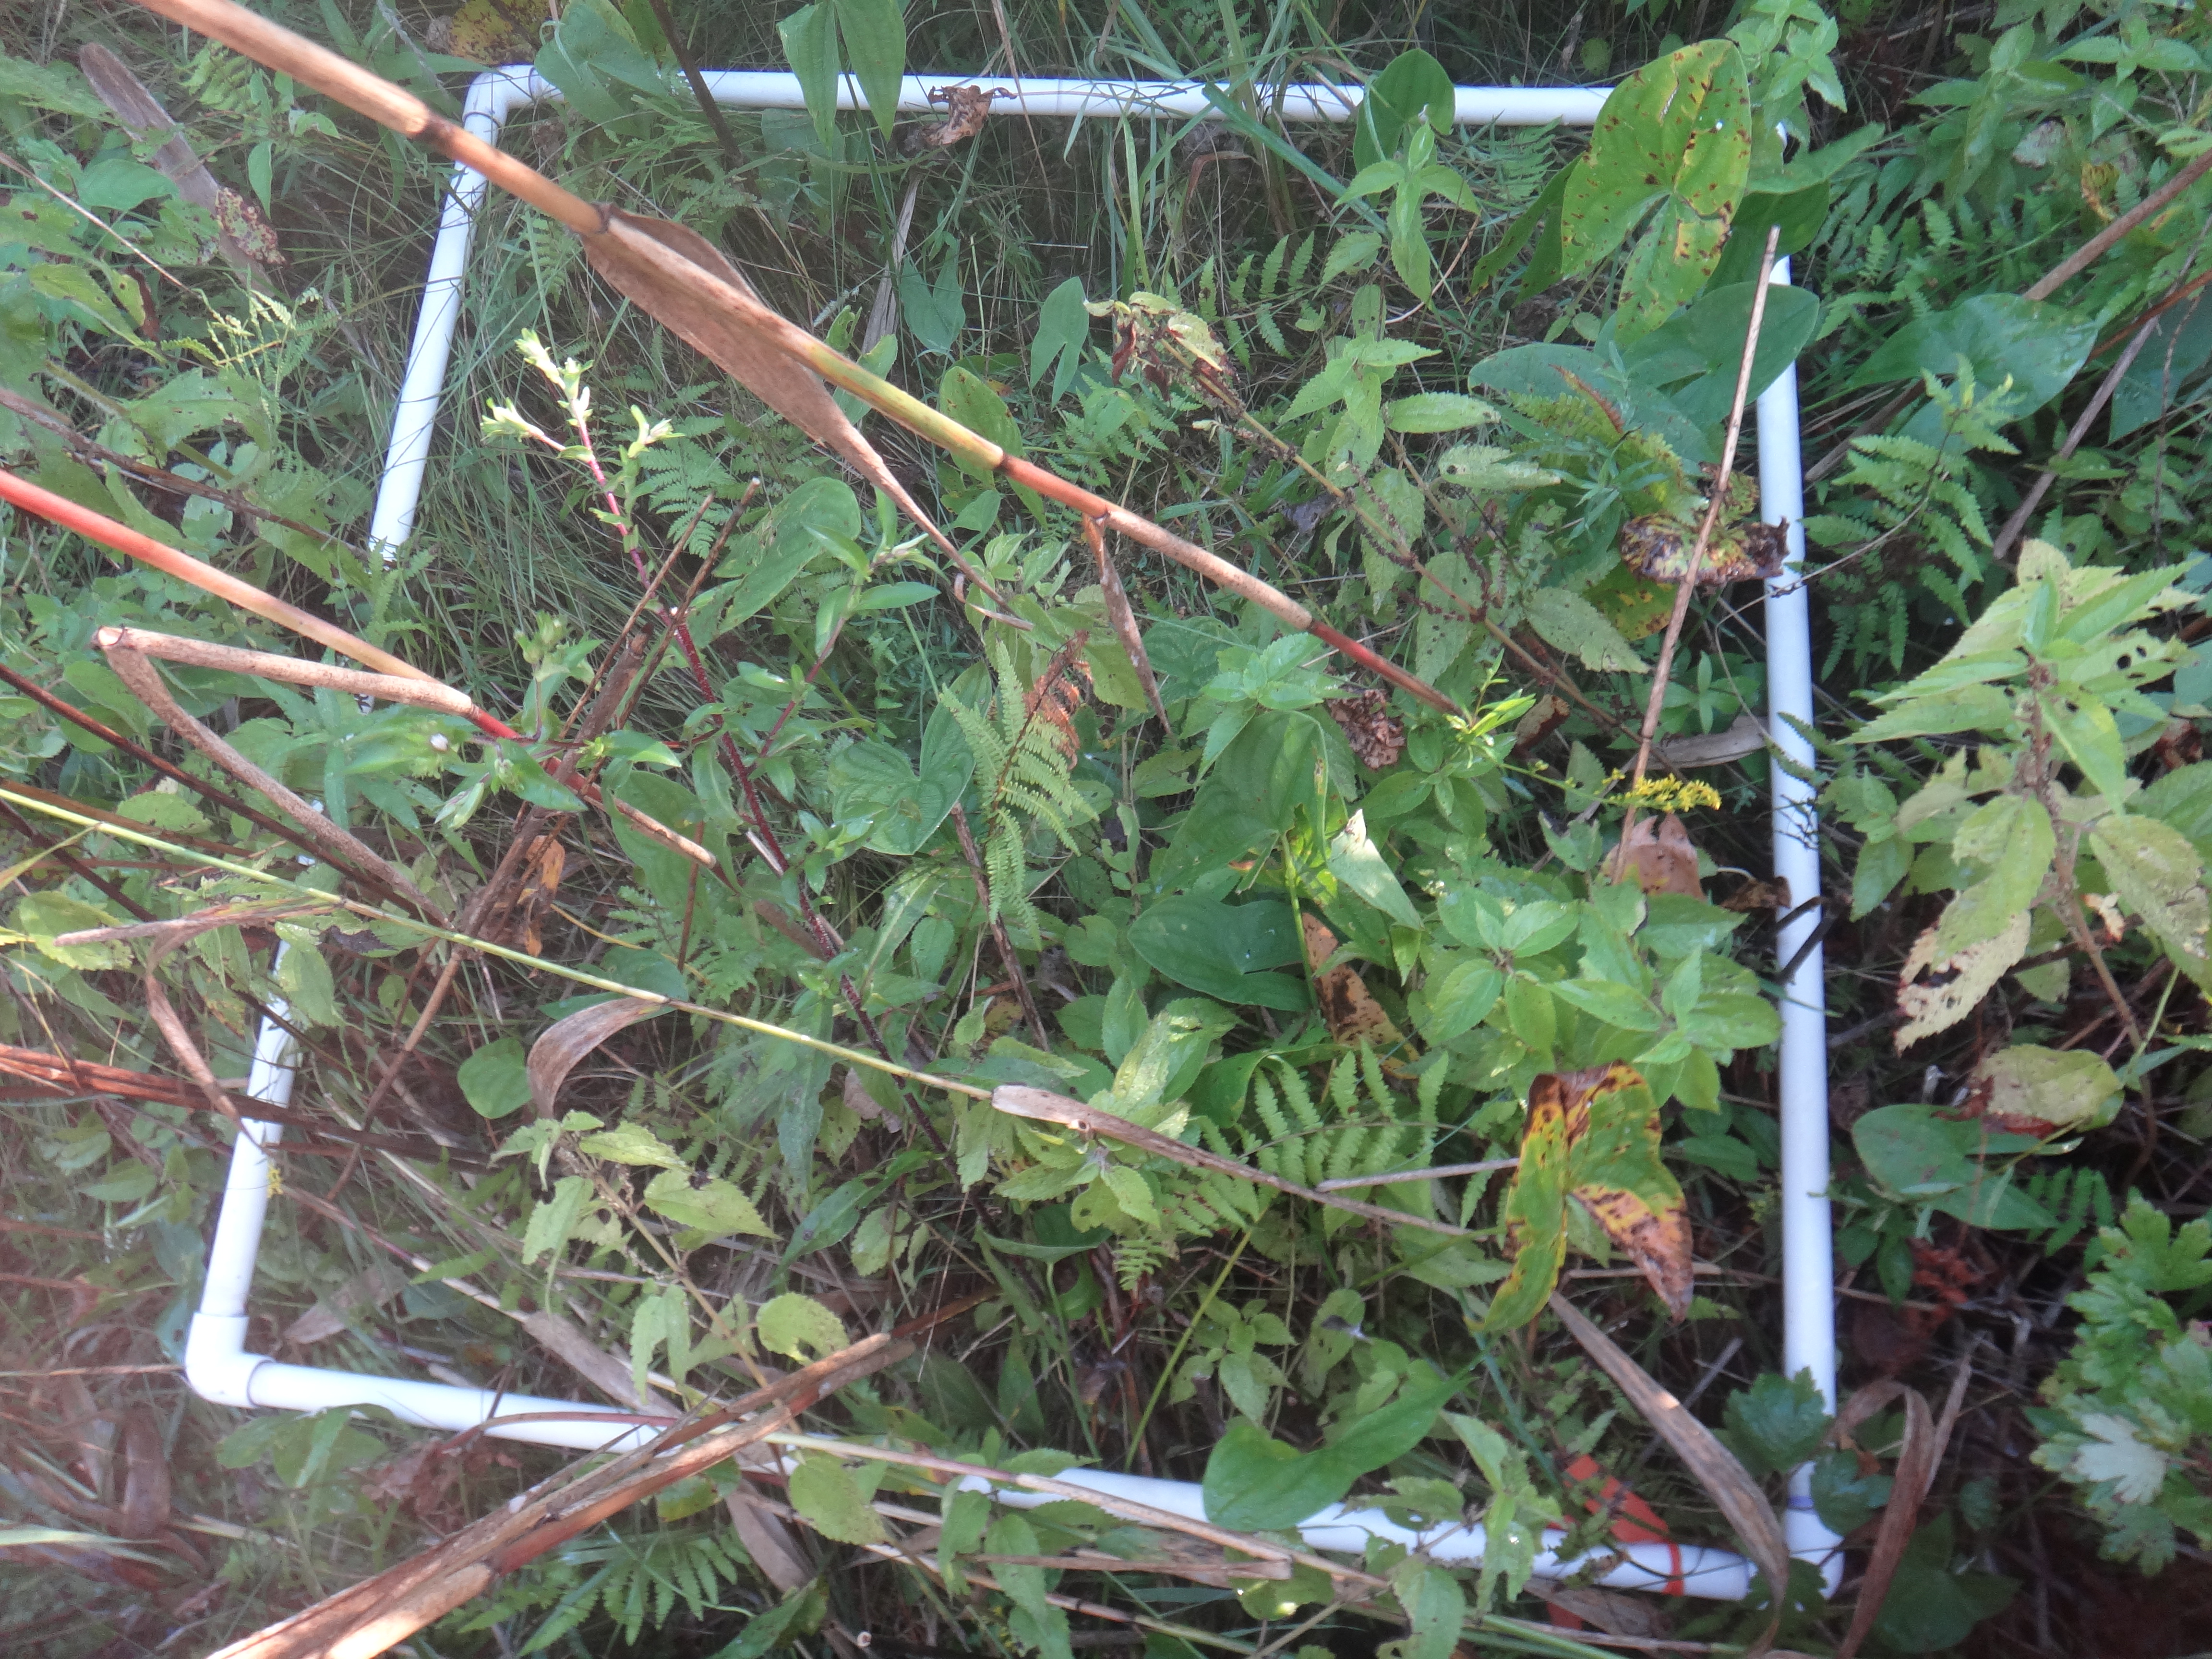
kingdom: Plantae
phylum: Tracheophyta
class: Magnoliopsida
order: Saxifragales
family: Grossulariaceae
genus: Ribes
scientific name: Ribes hirtellum
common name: Hairy gooseberry
